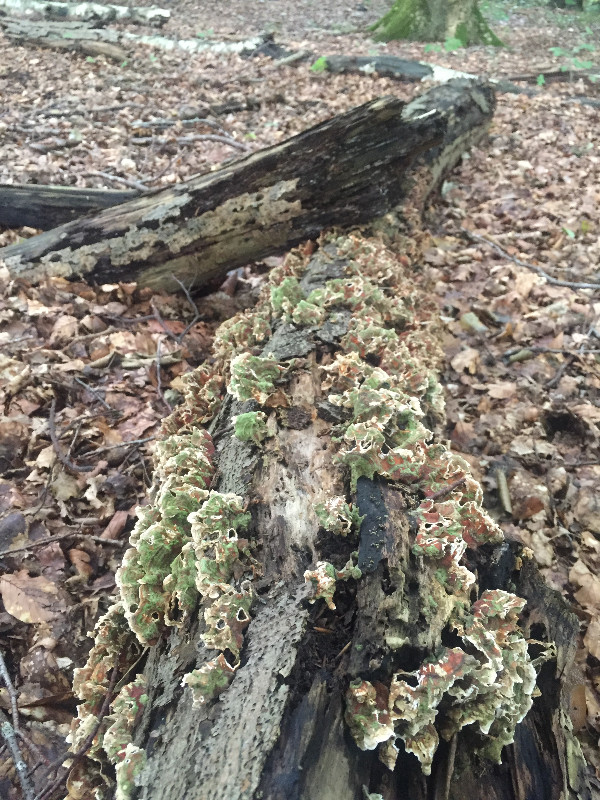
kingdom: Fungi
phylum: Basidiomycota
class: Agaricomycetes
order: Polyporales
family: Polyporaceae
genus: Trametes
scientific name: Trametes
